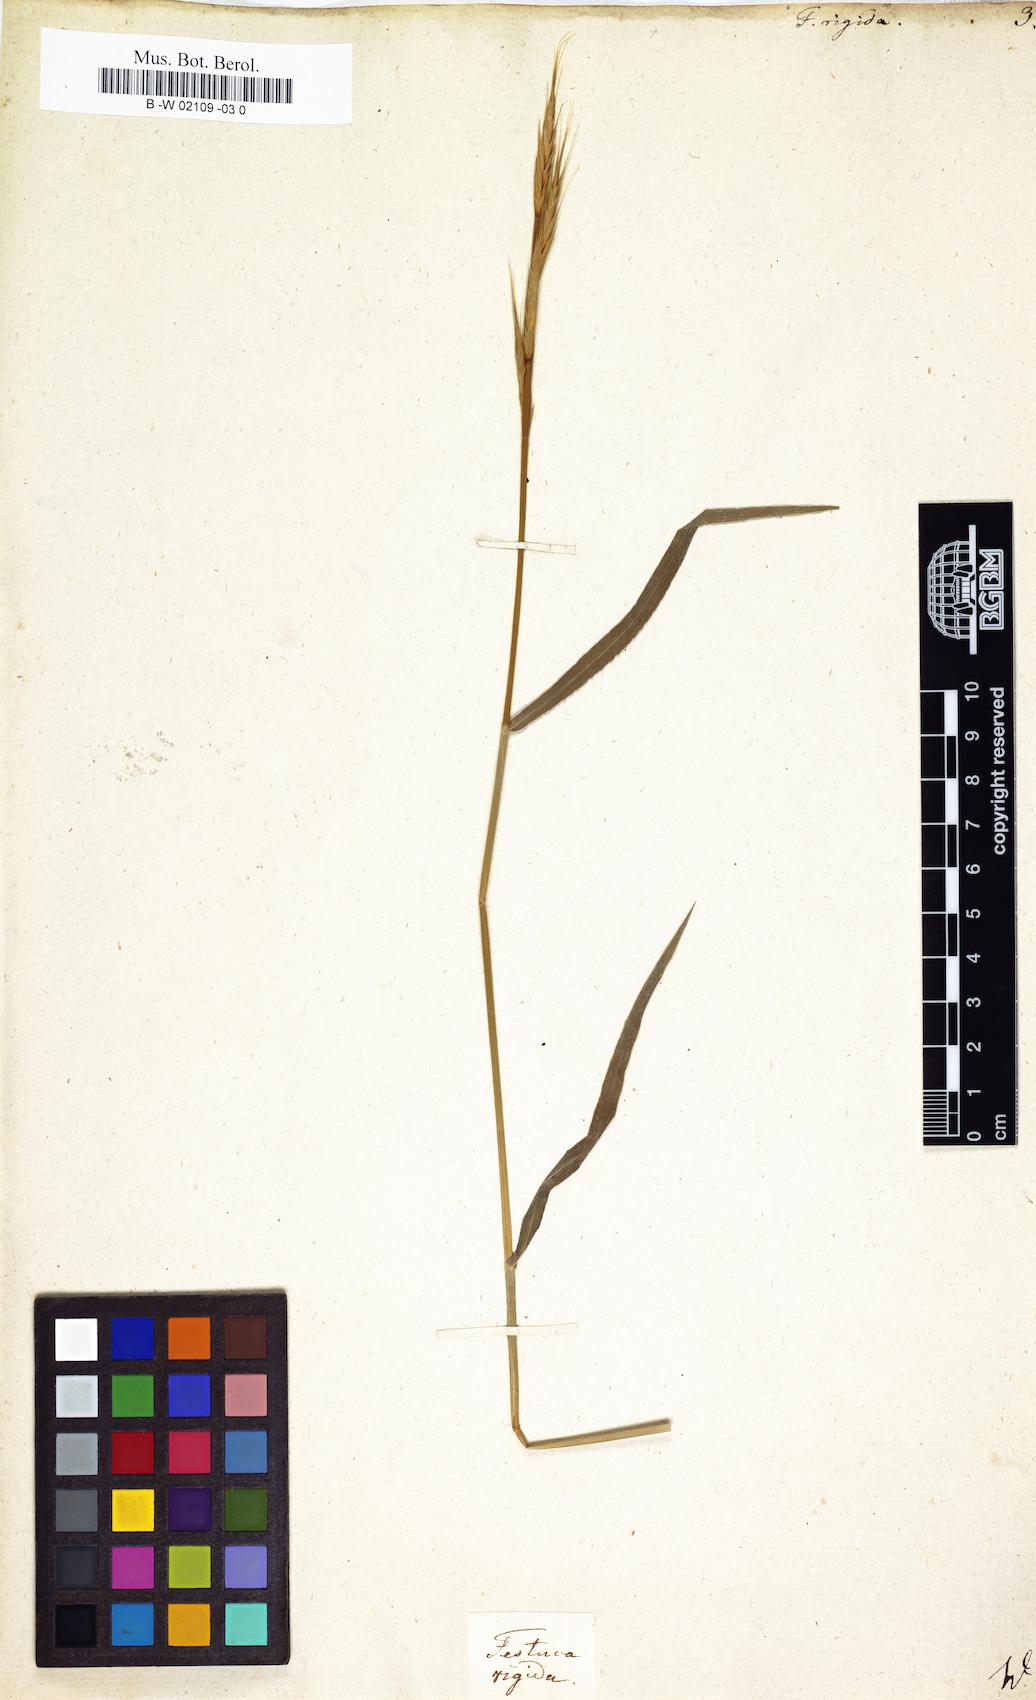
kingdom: Plantae
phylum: Tracheophyta
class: Liliopsida
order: Poales
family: Poaceae
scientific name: Poaceae
